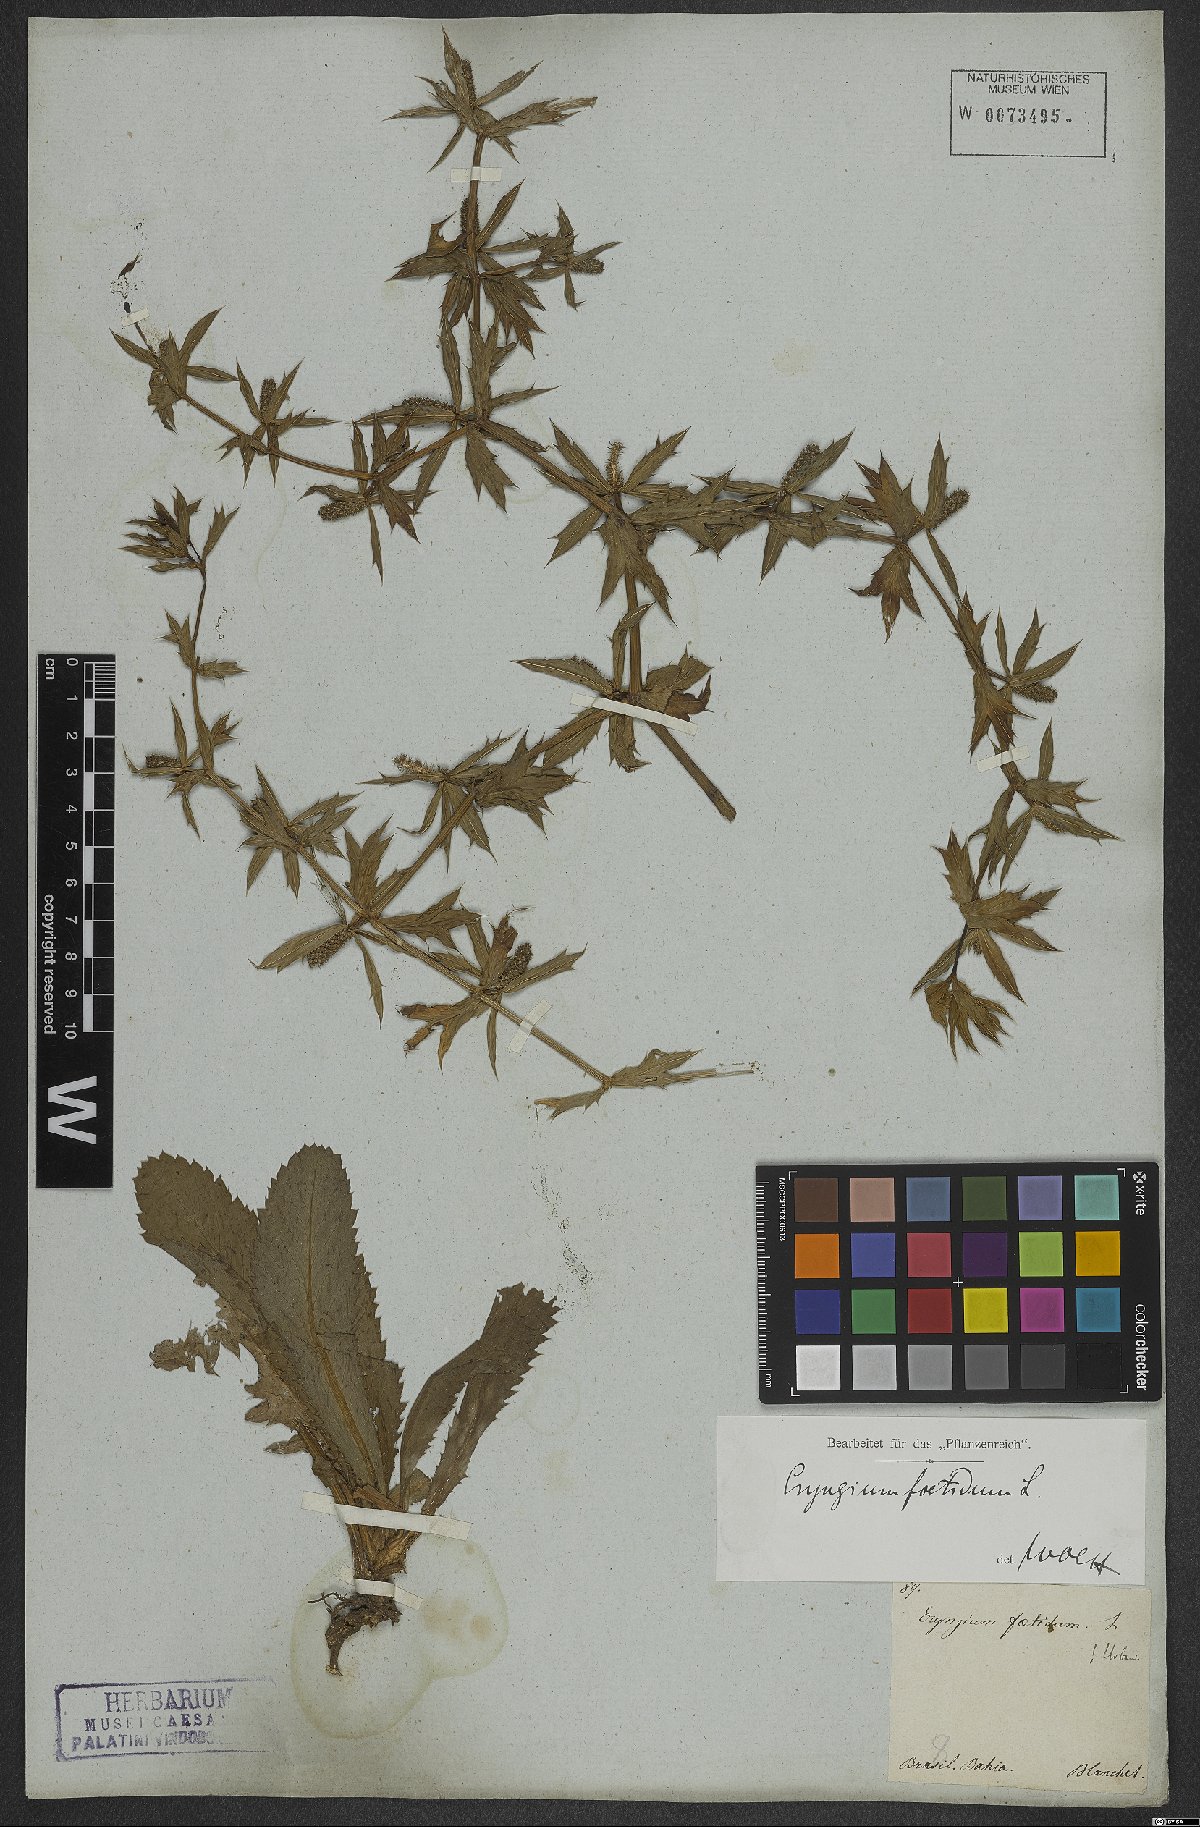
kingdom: Plantae
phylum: Tracheophyta
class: Magnoliopsida
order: Apiales
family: Apiaceae
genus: Eryngium
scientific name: Eryngium foetidum
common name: Fitweed
